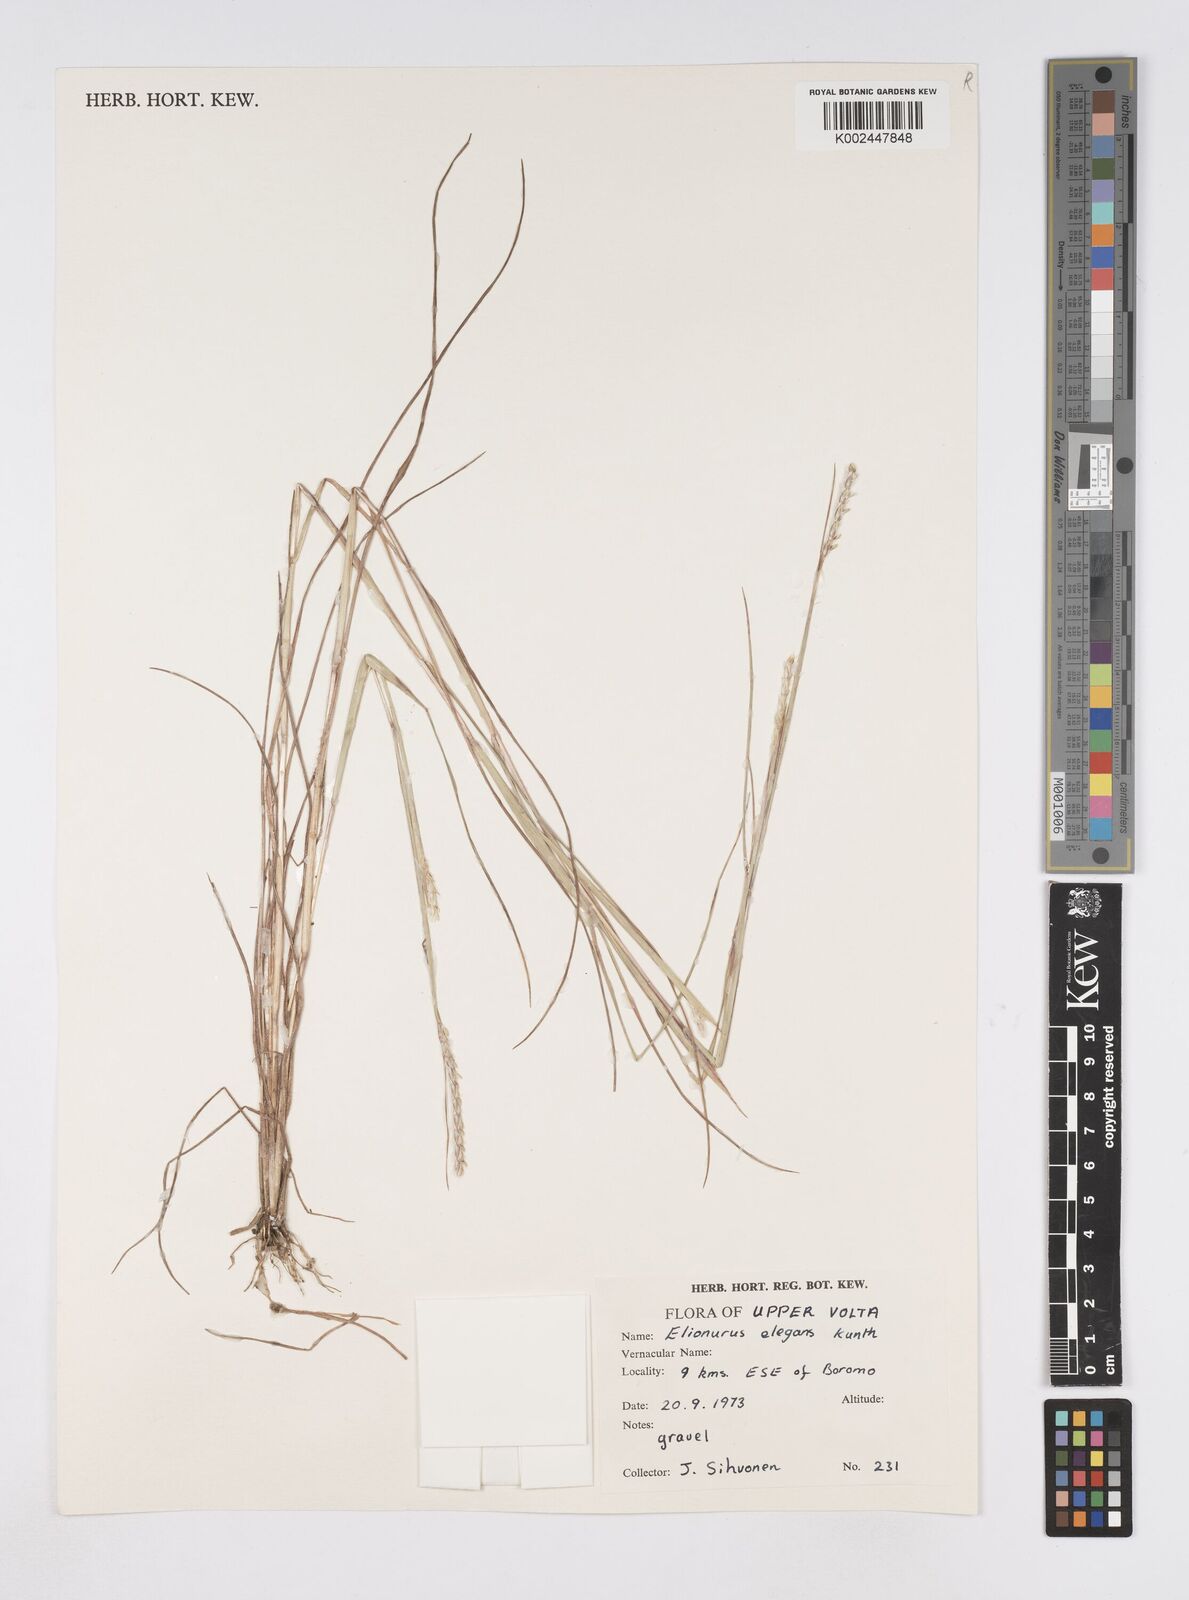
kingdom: Plantae
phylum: Tracheophyta
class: Liliopsida
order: Poales
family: Poaceae
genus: Elionurus
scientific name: Elionurus elegans
